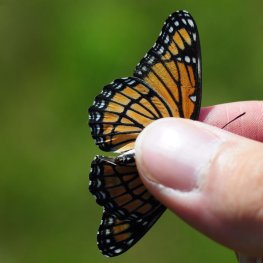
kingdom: Animalia
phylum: Arthropoda
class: Insecta
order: Lepidoptera
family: Nymphalidae
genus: Limenitis
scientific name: Limenitis archippus
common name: Viceroy
